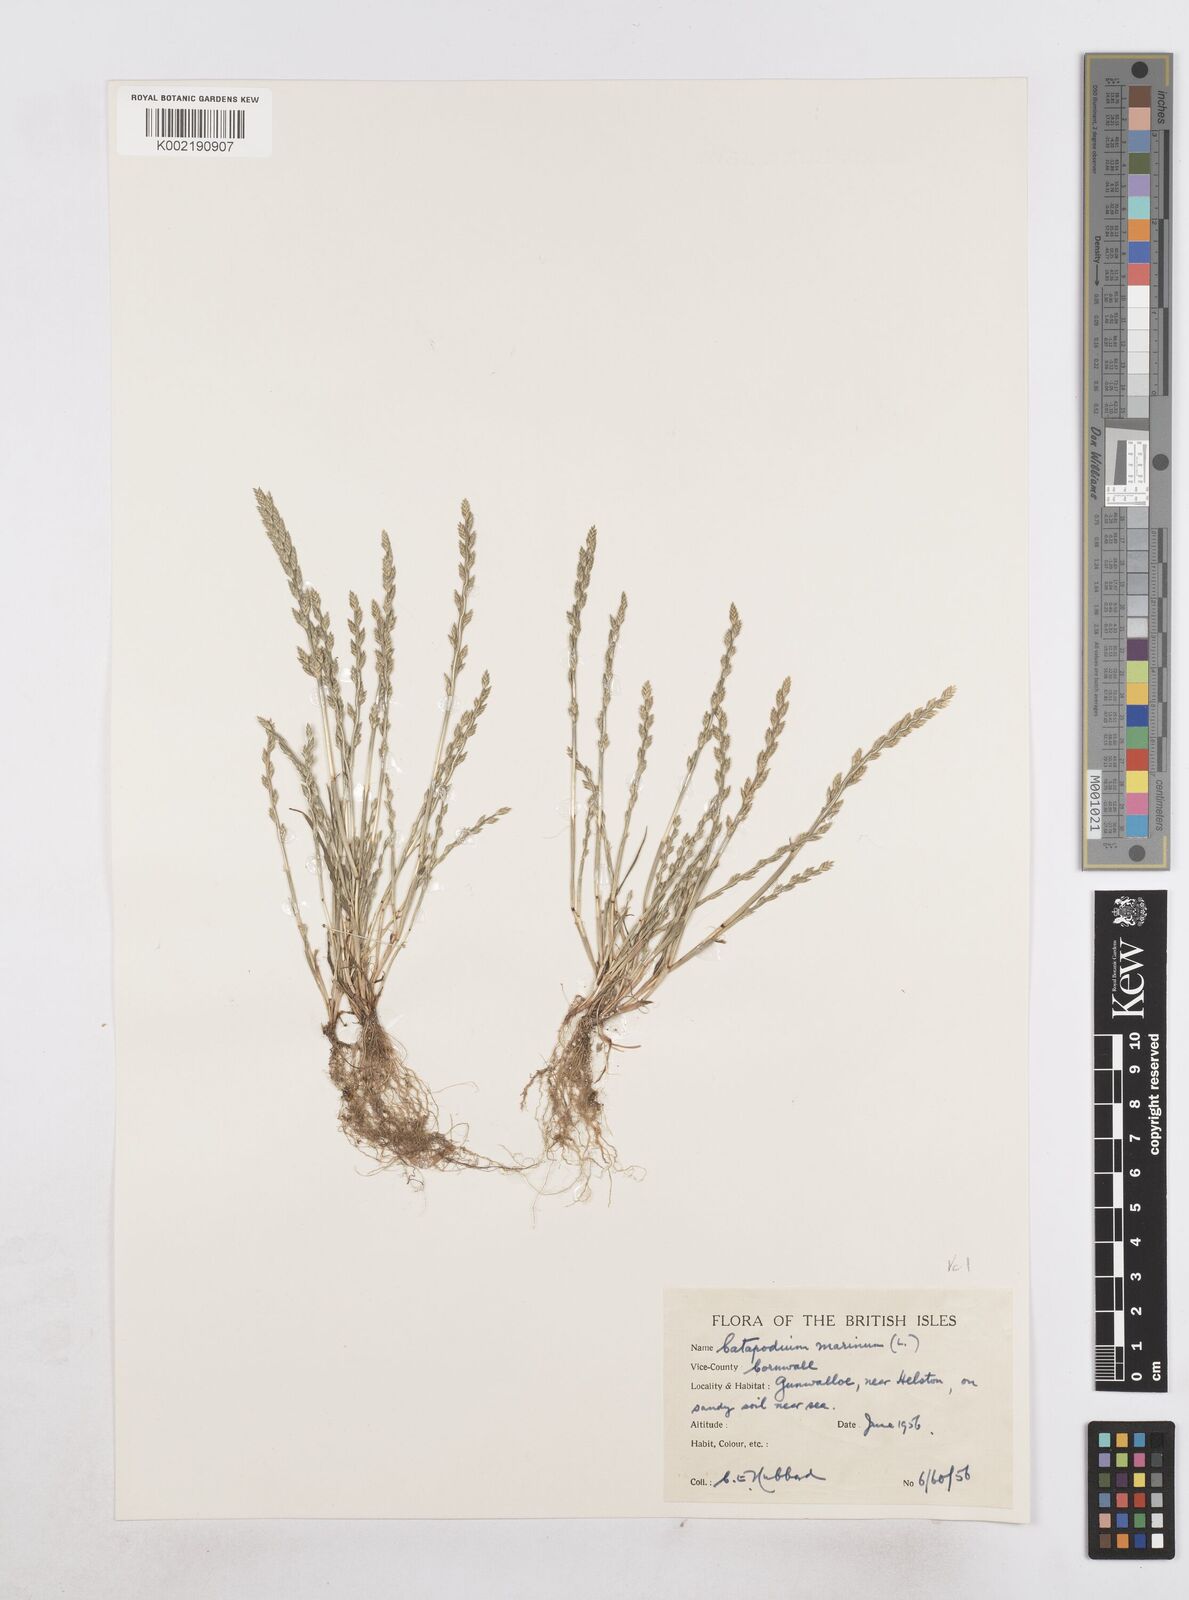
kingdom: Plantae
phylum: Tracheophyta
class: Liliopsida
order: Poales
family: Poaceae
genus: Catapodium
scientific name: Catapodium marinum
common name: Sea fern-grass
